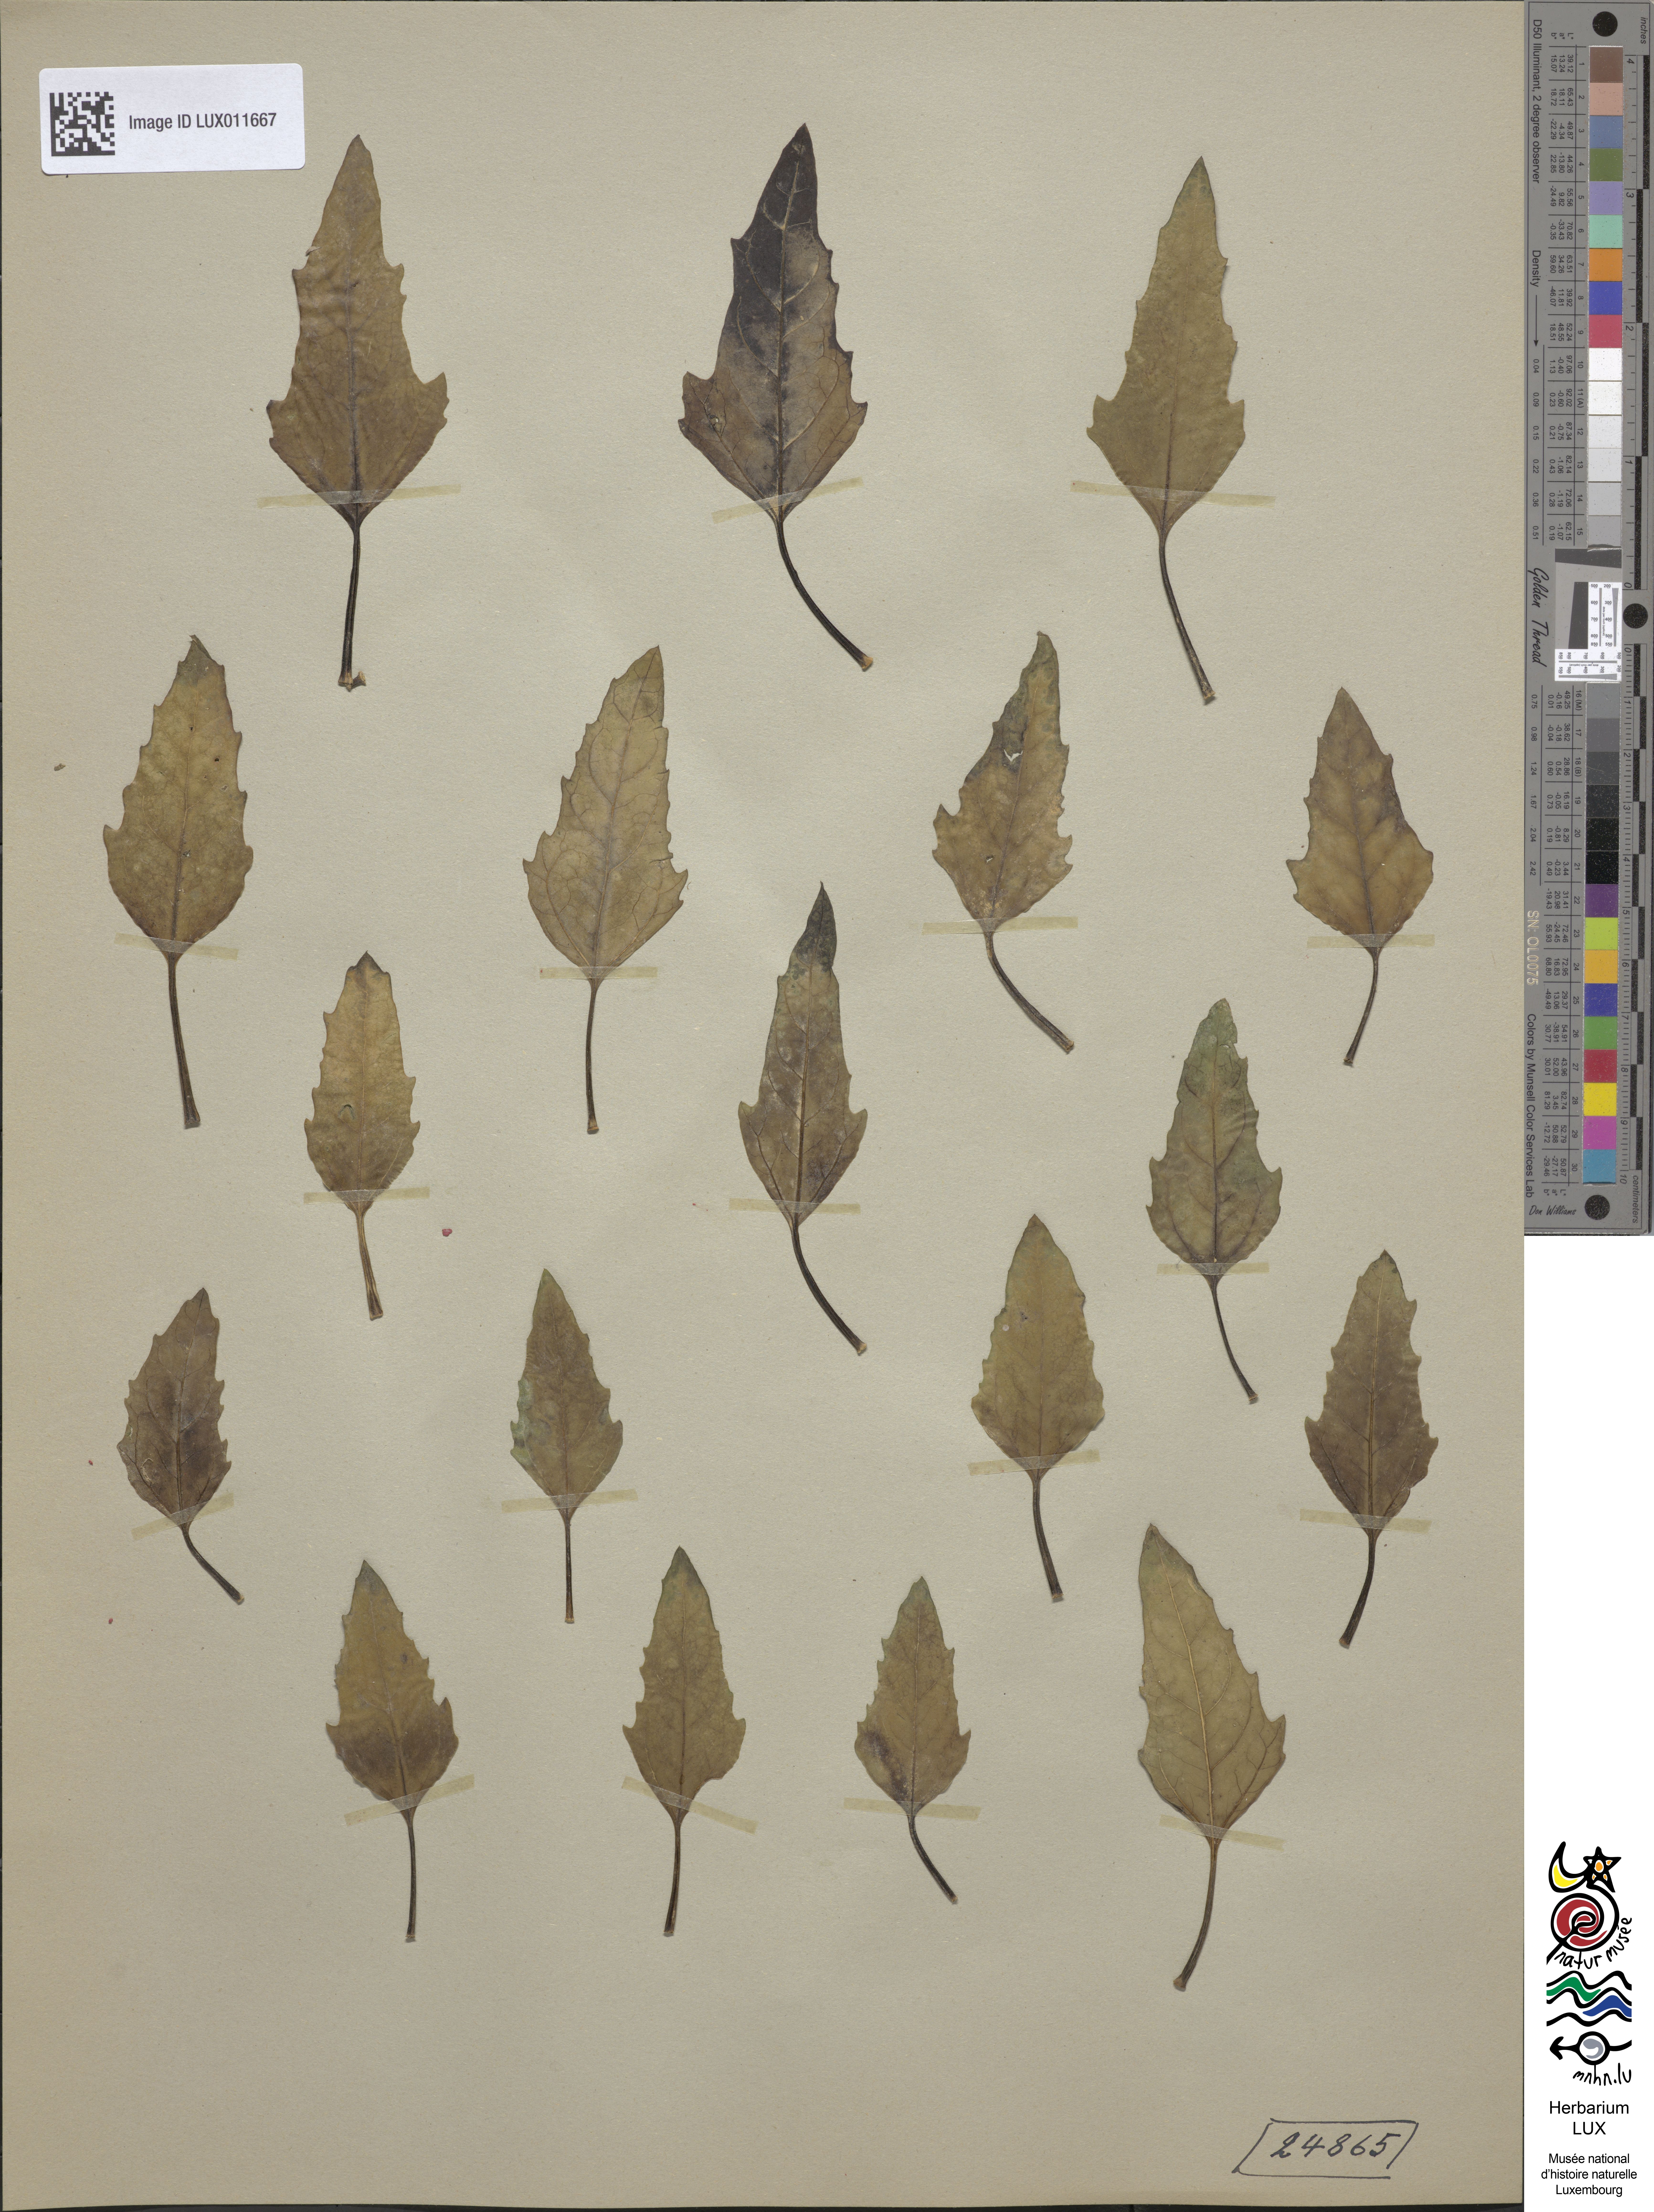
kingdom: Plantae
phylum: Tracheophyta
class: Magnoliopsida
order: Caryophyllales
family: Amaranthaceae
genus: Chenopodium
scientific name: Chenopodium probstii
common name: Probst's goosefoot
